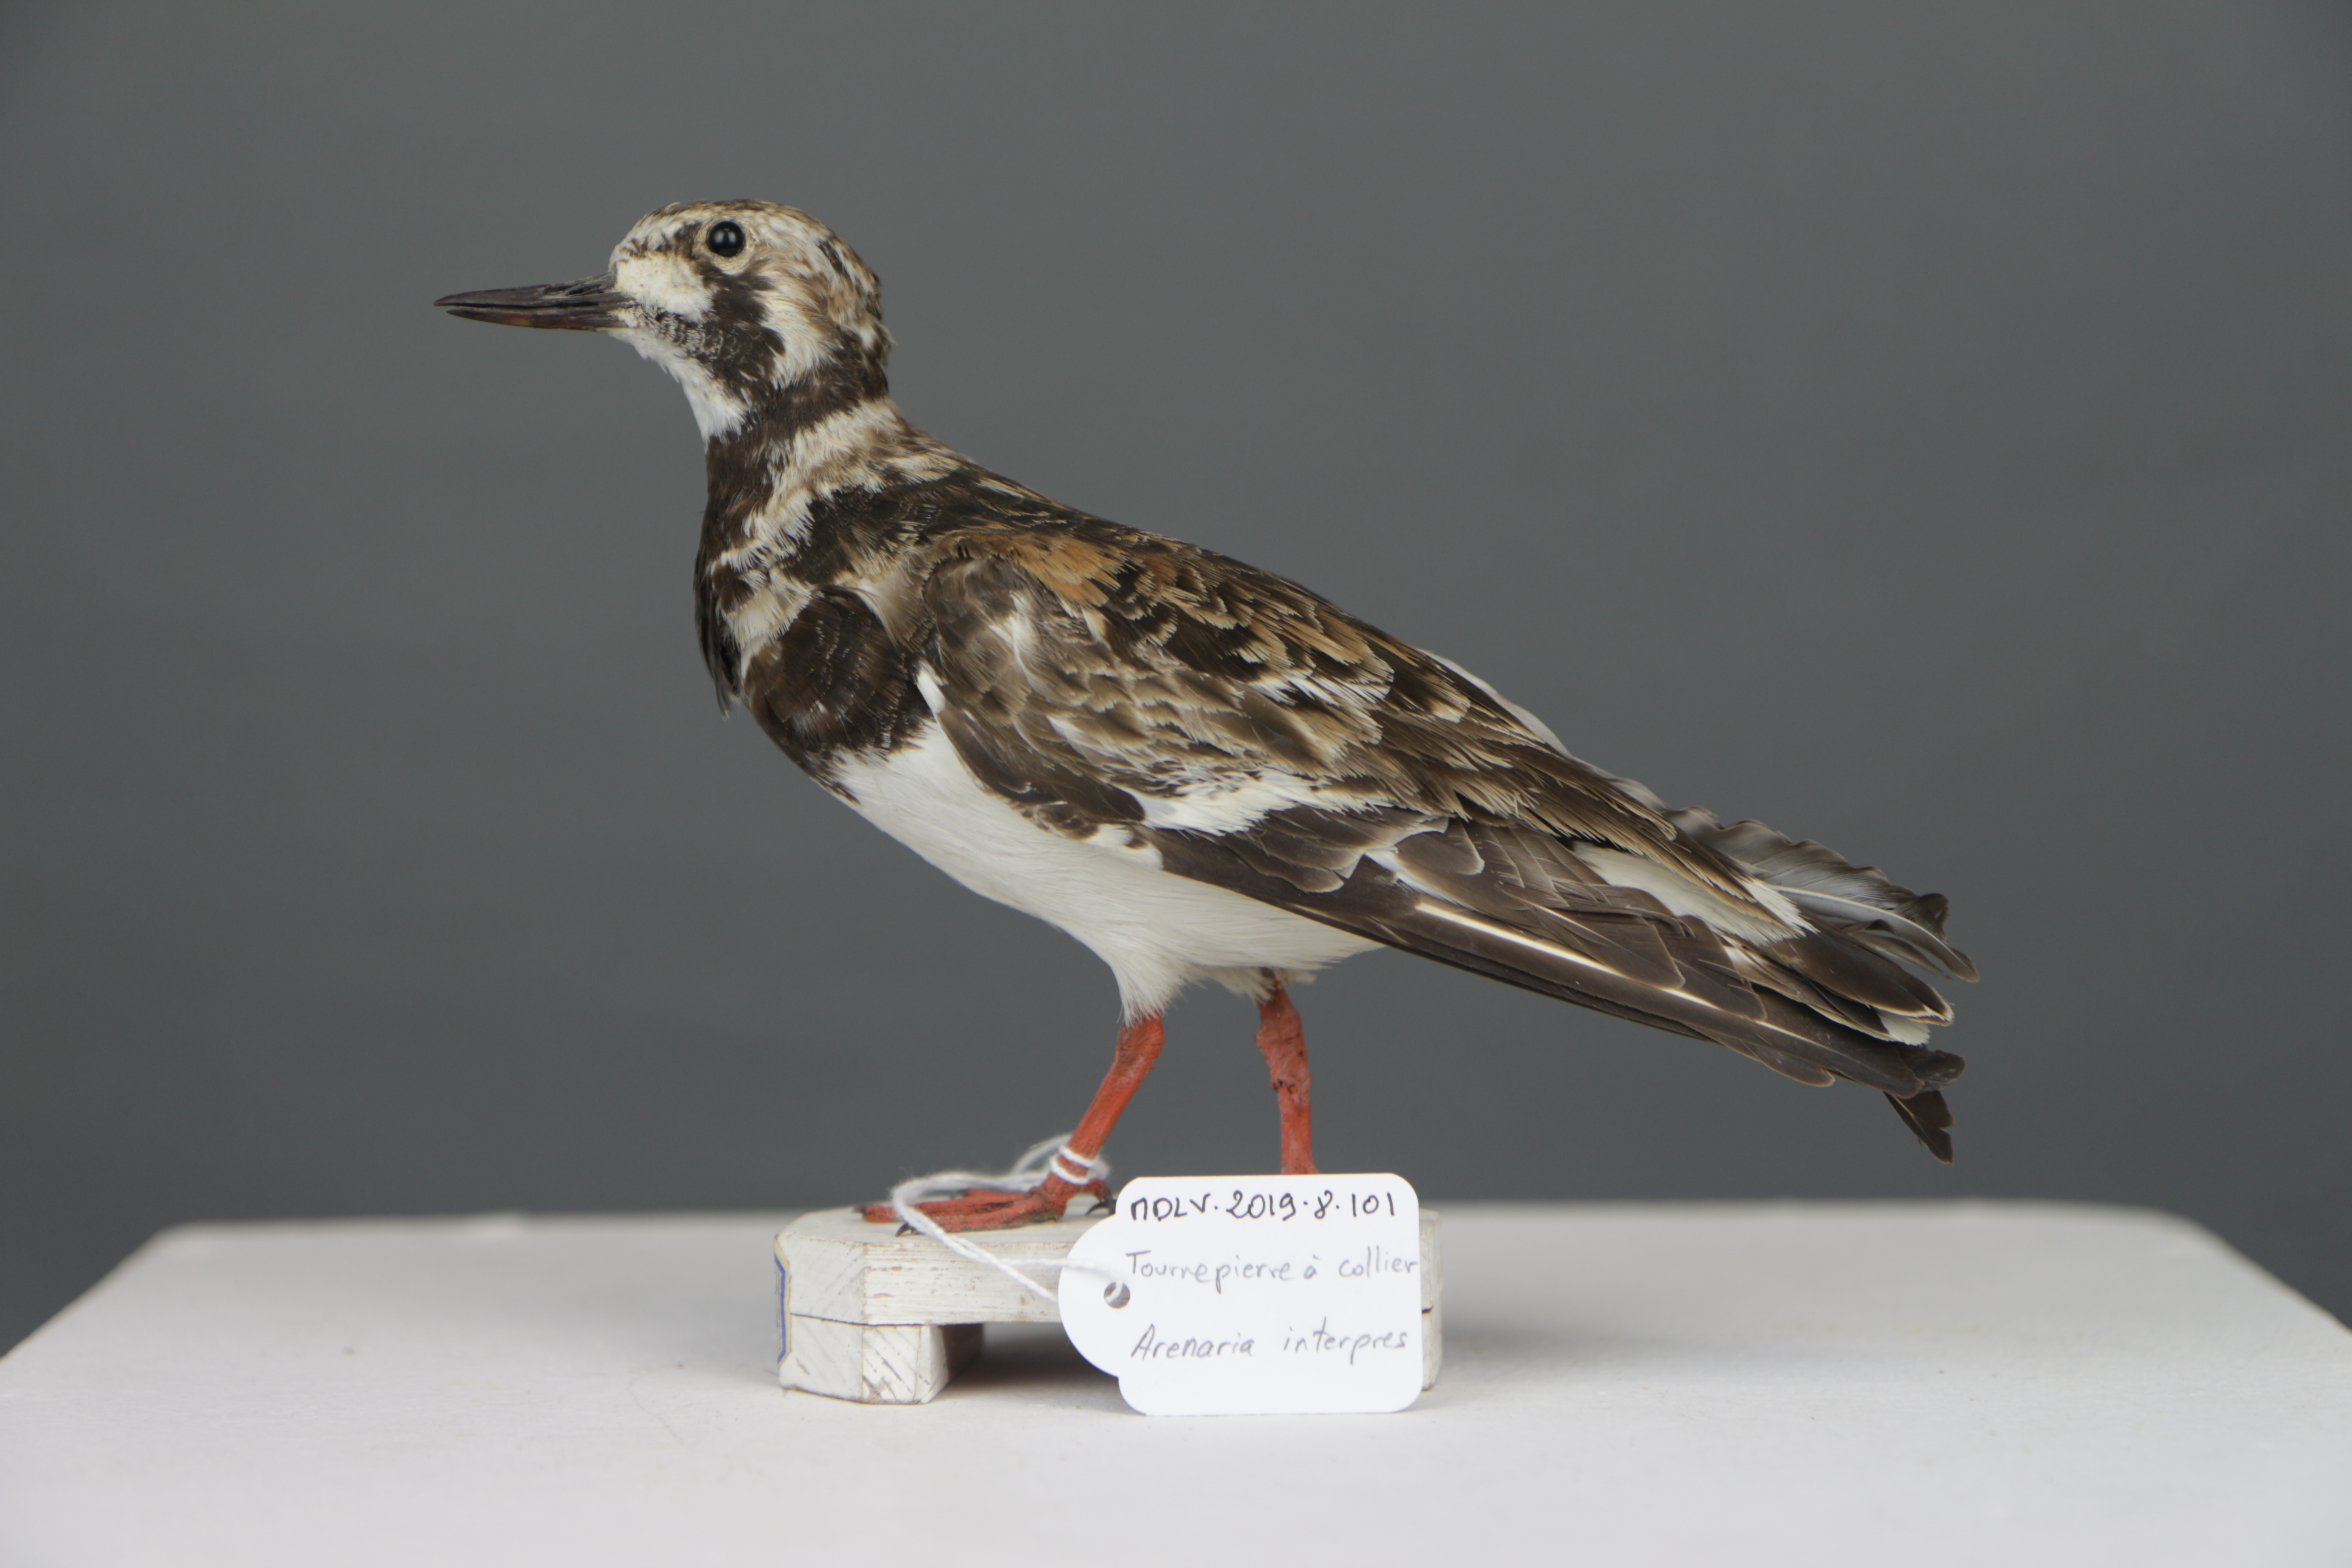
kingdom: Animalia
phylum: Chordata
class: Aves
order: Charadriiformes
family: Scolopacidae
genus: Arenaria
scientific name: Arenaria interpres
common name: Ruddy turnstone
